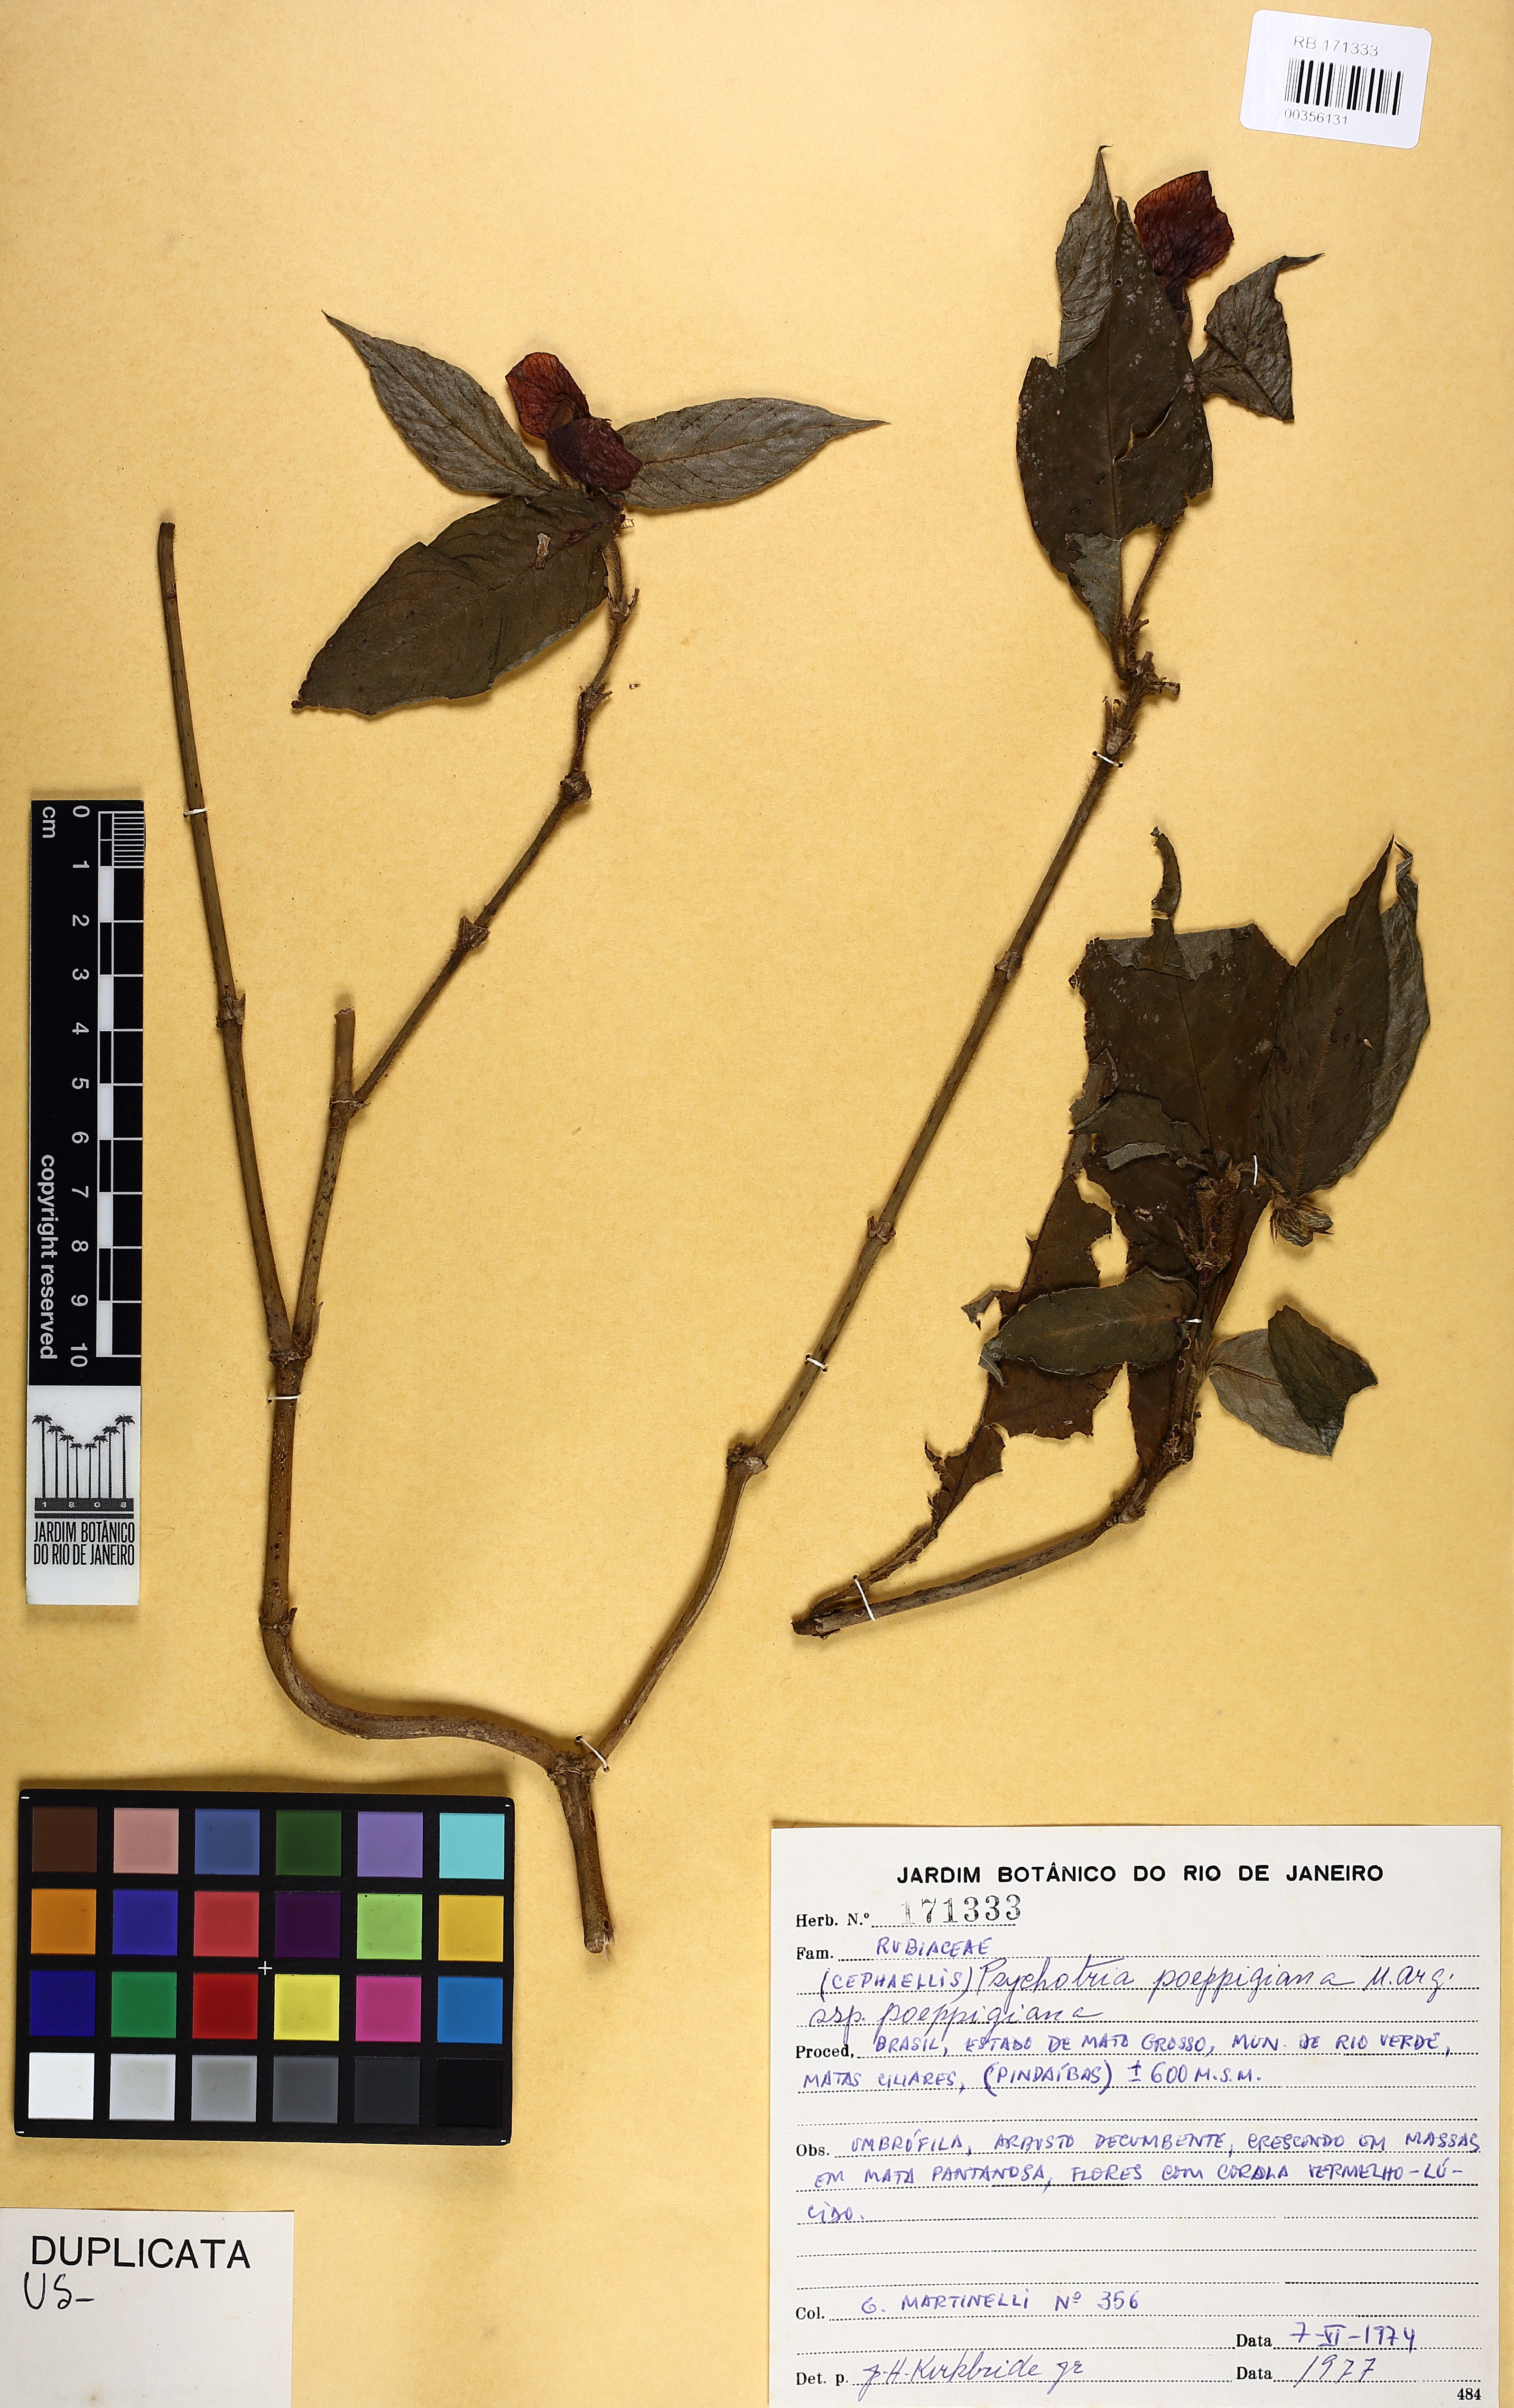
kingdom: Plantae
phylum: Tracheophyta
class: Magnoliopsida
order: Gentianales
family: Rubiaceae
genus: Palicourea
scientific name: Palicourea tomentosa
